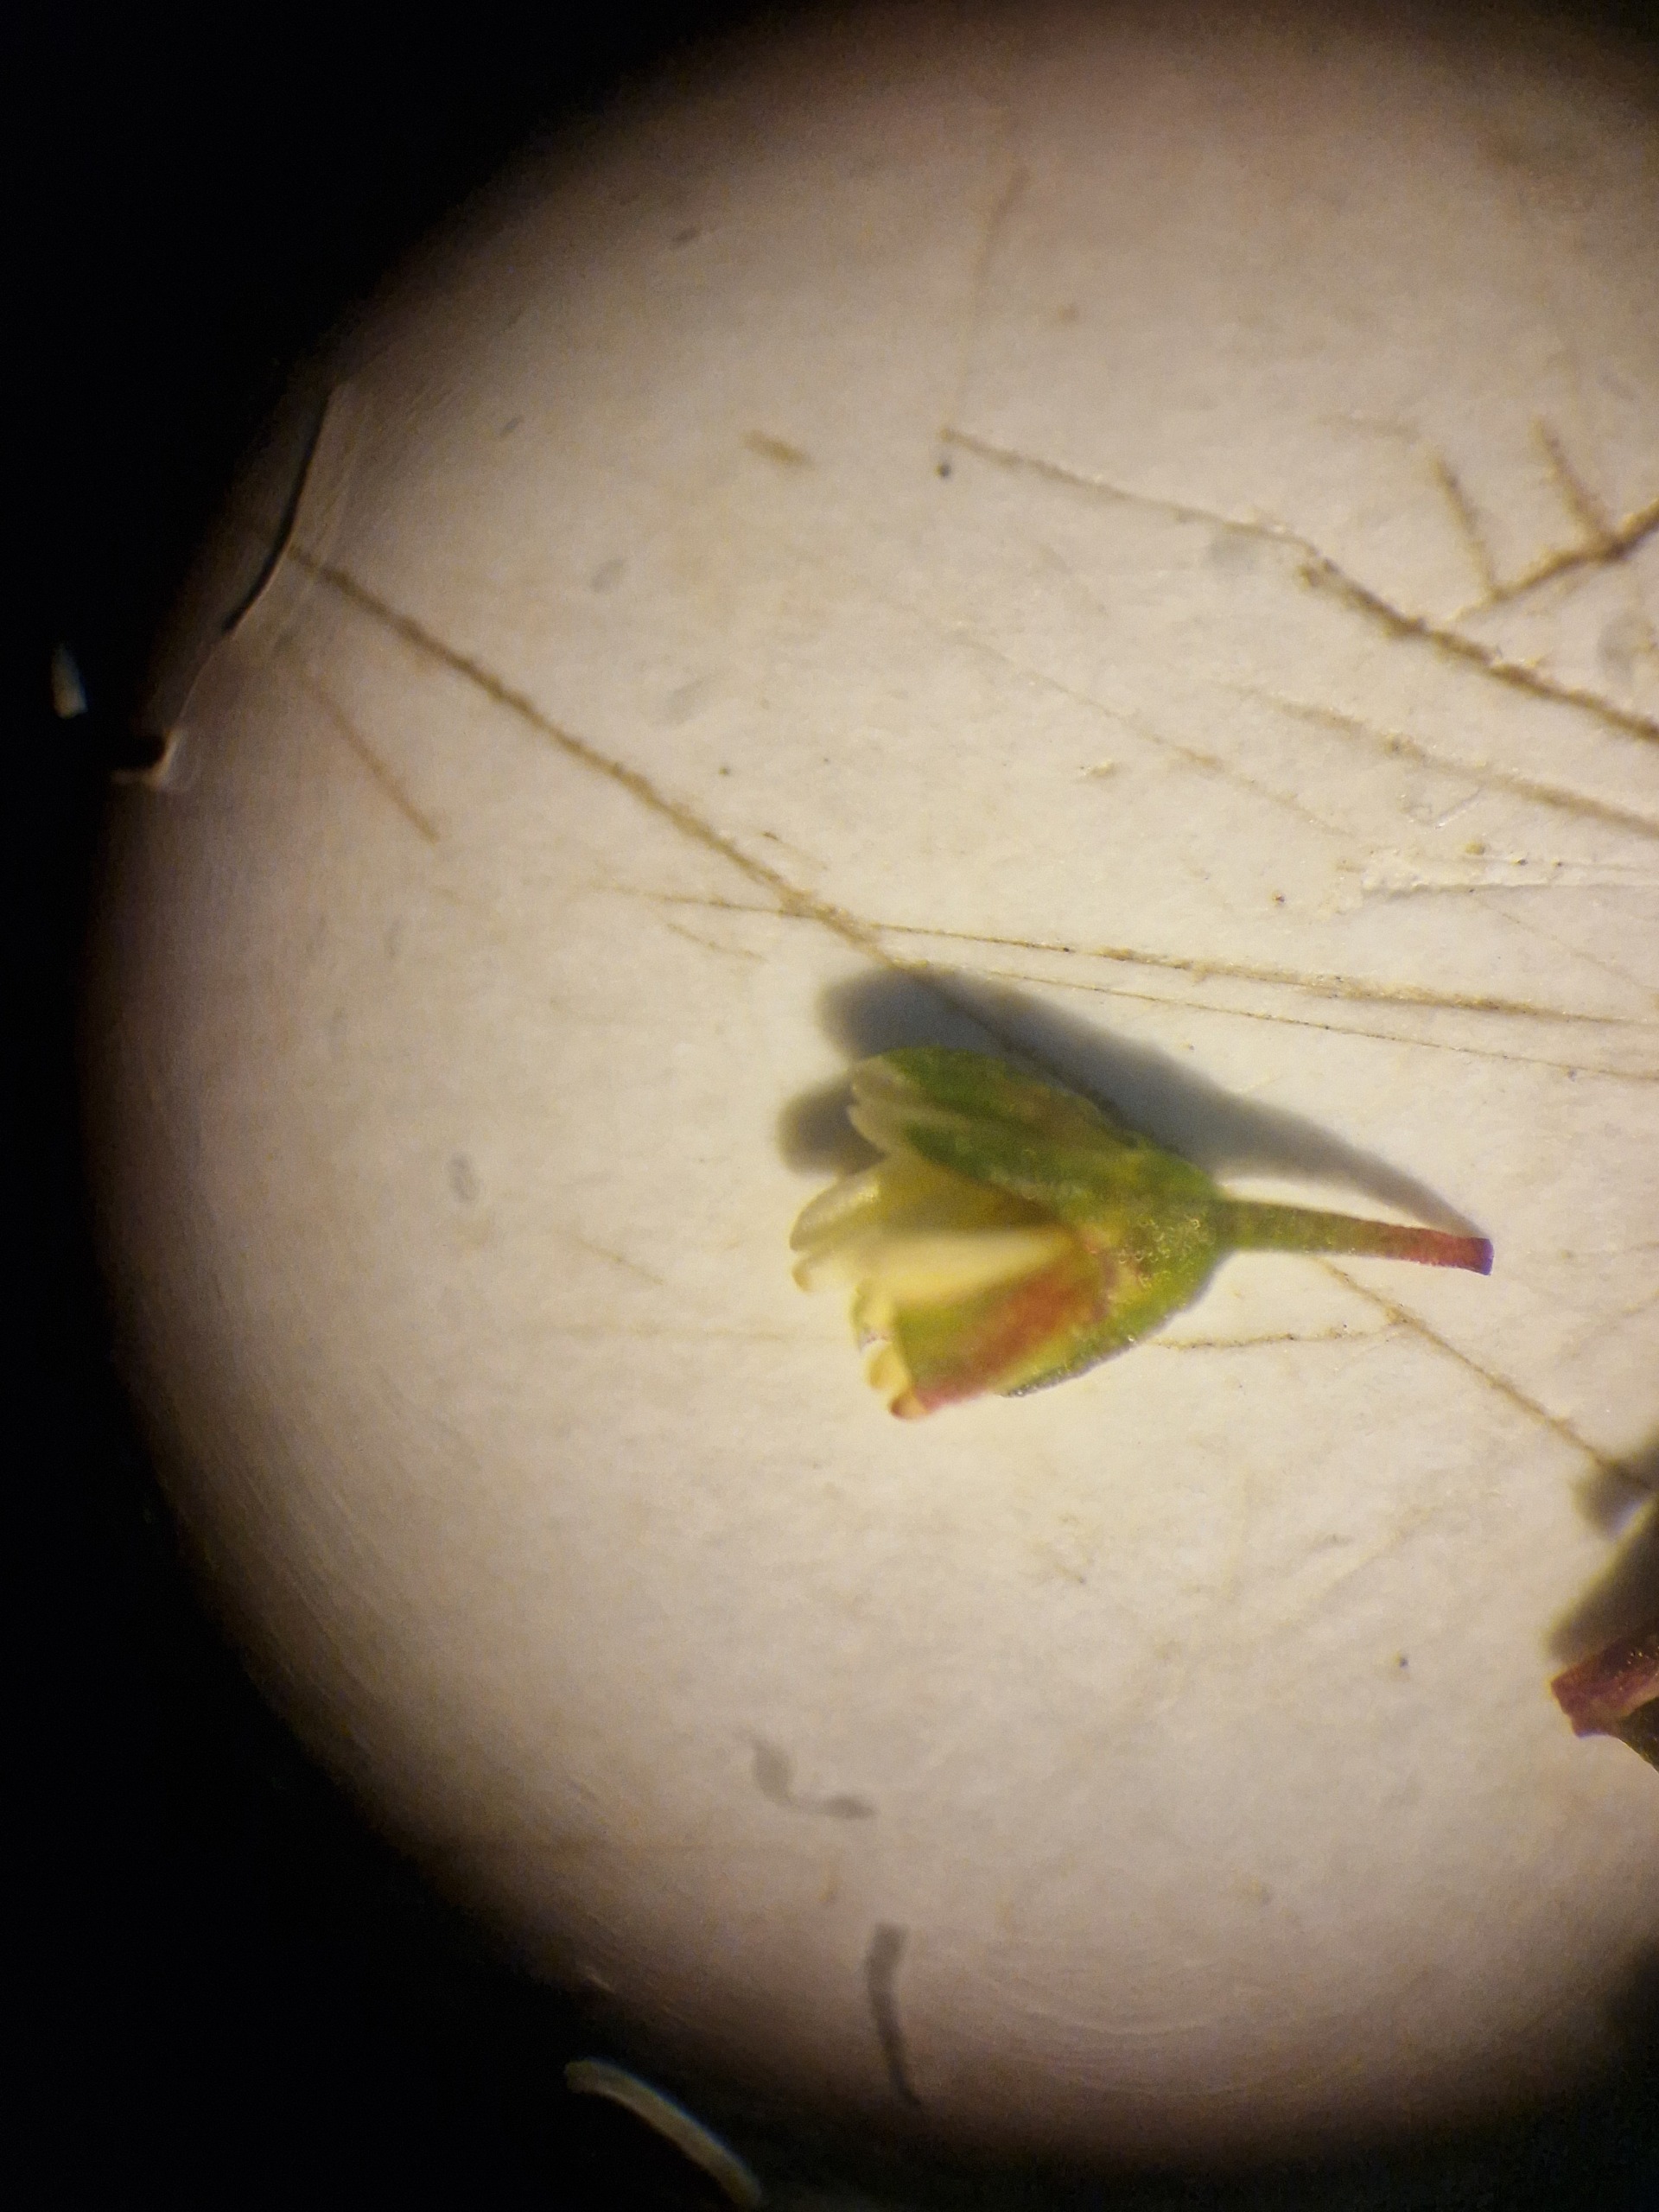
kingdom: Plantae
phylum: Tracheophyta
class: Magnoliopsida
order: Caryophyllales
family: Polygonaceae
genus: Rumex
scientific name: Rumex conglomeratus
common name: Nøgle-skræppe
